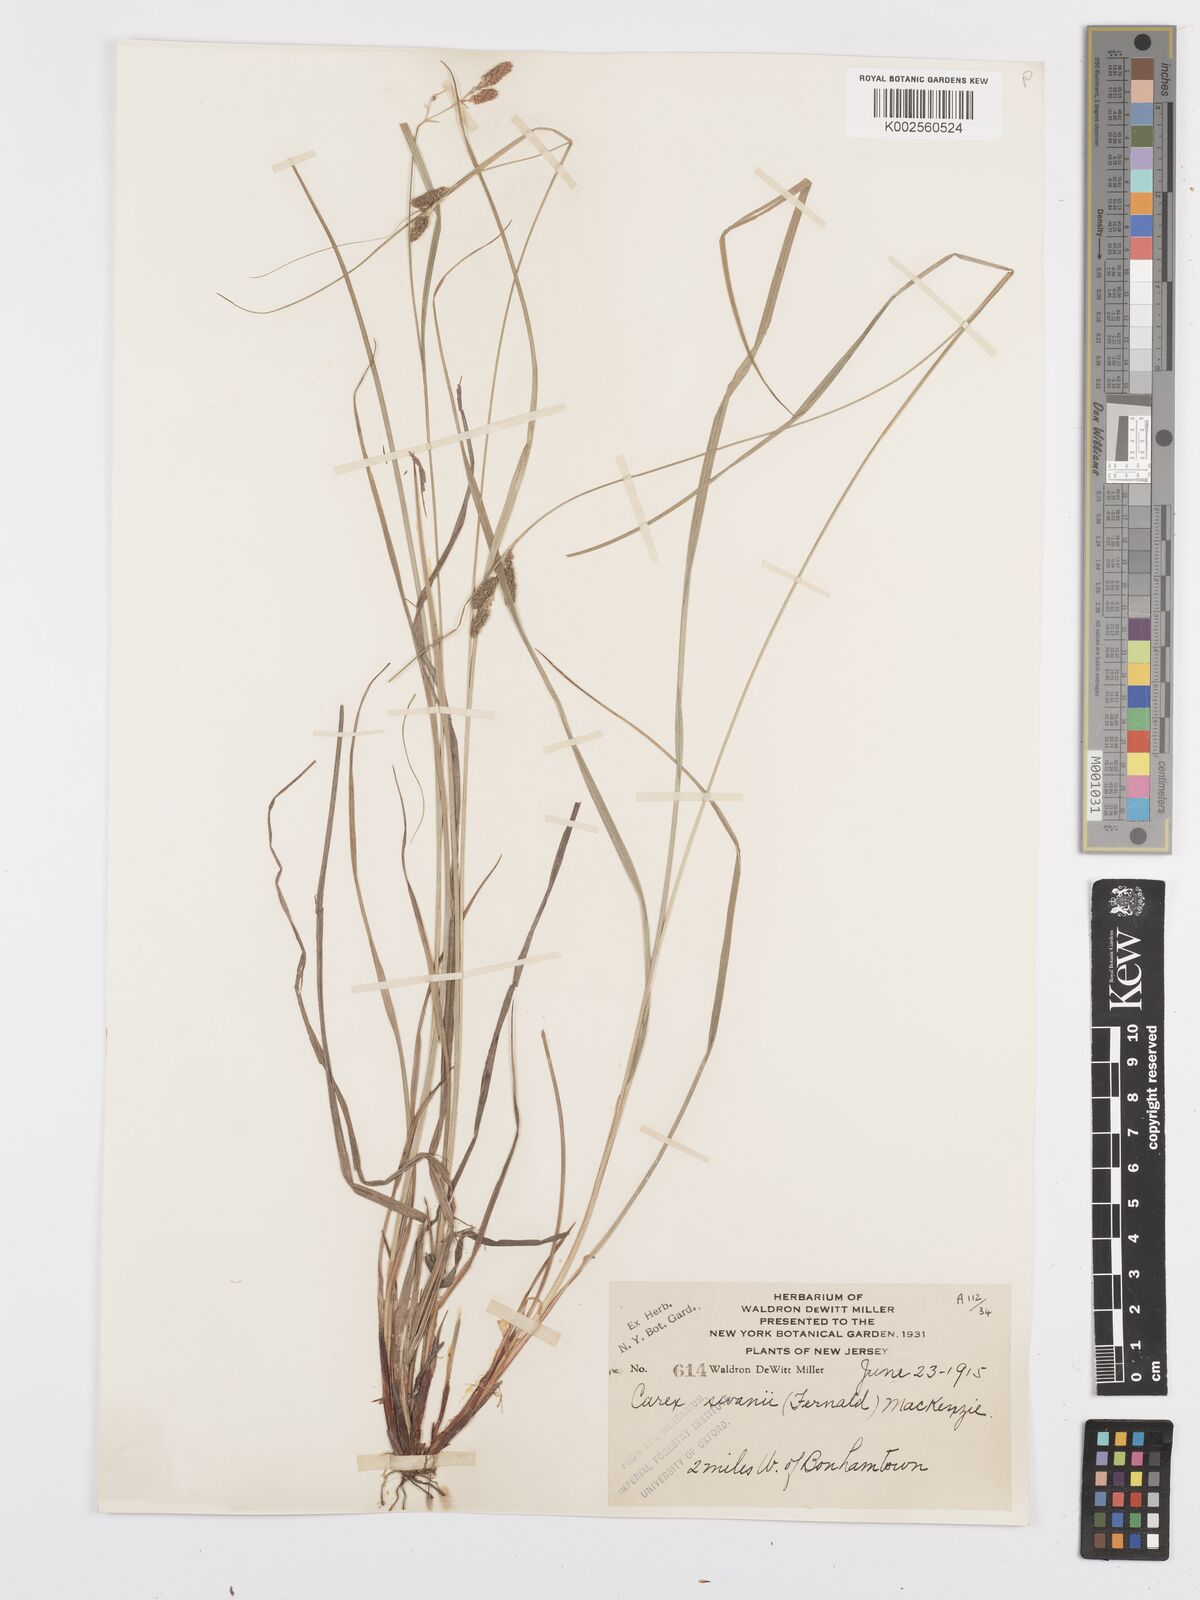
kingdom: Plantae
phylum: Tracheophyta
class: Liliopsida
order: Poales
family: Cyperaceae
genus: Carex
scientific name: Carex swanii
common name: Downy green sedge
